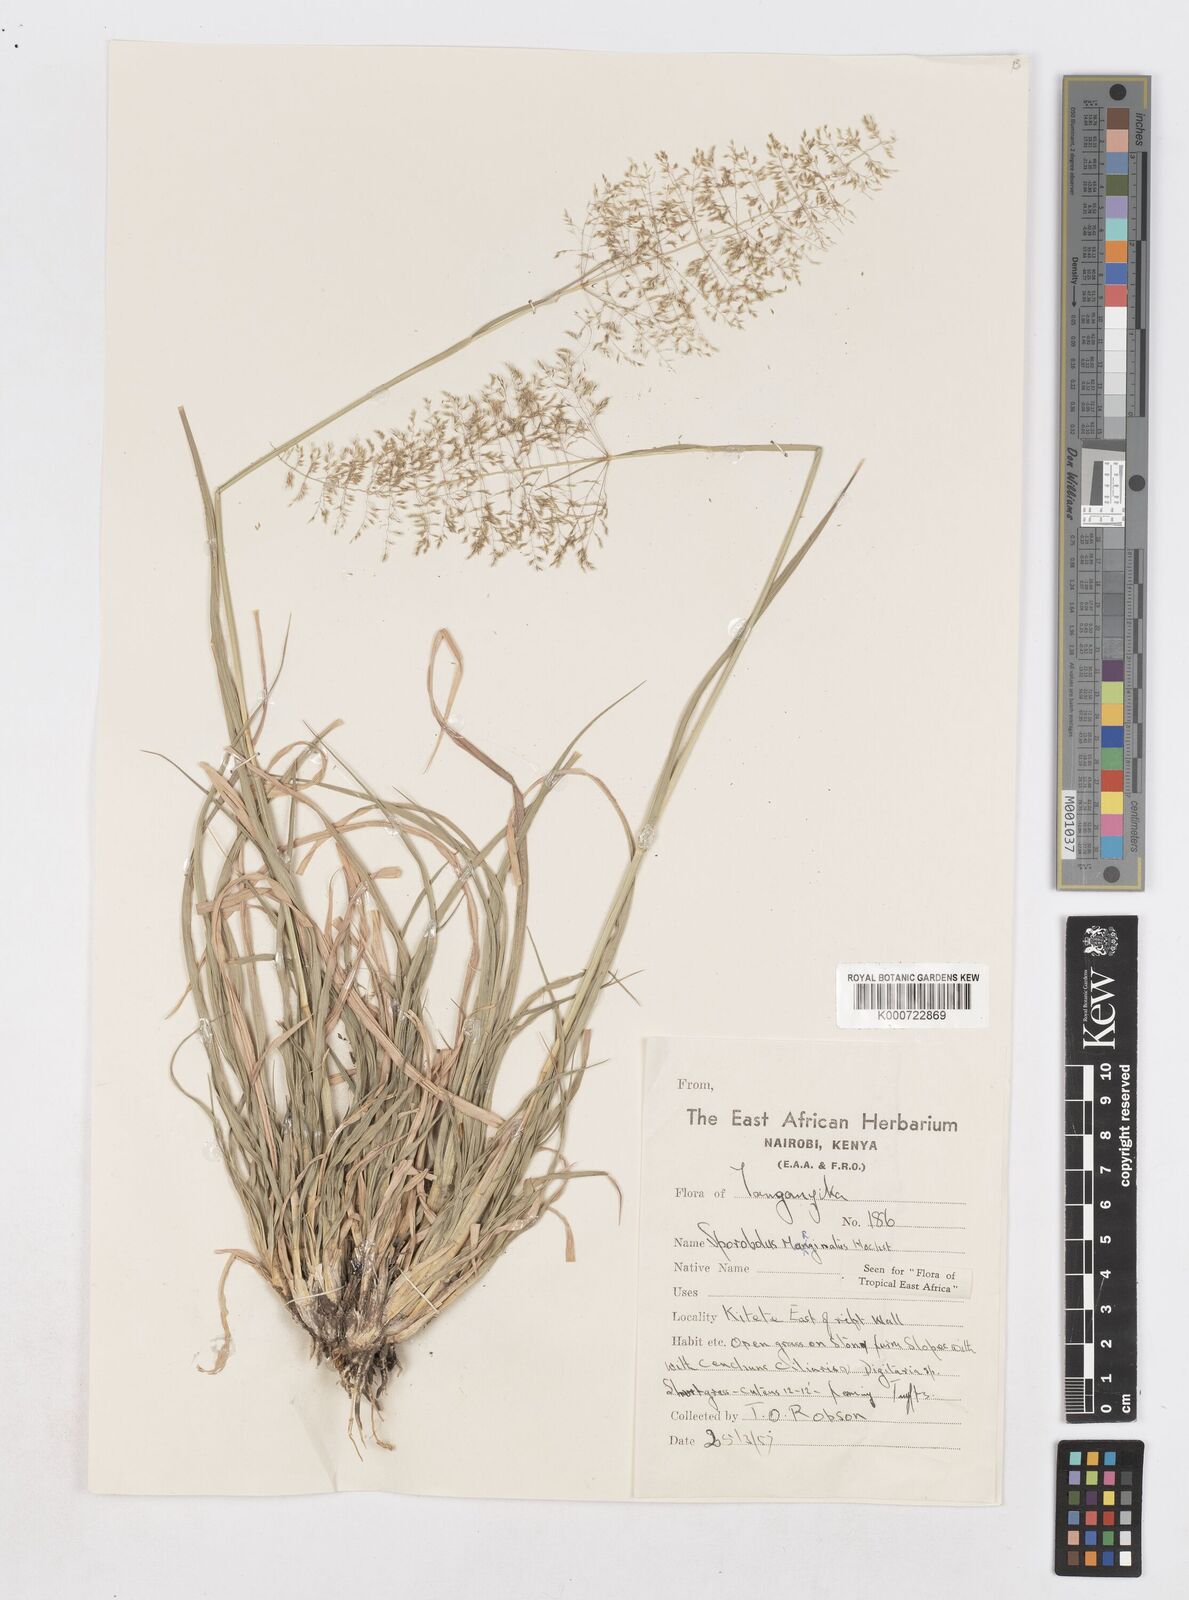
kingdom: Plantae
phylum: Tracheophyta
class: Liliopsida
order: Poales
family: Poaceae
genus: Sporobolus
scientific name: Sporobolus ioclados
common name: Pan dropseed
